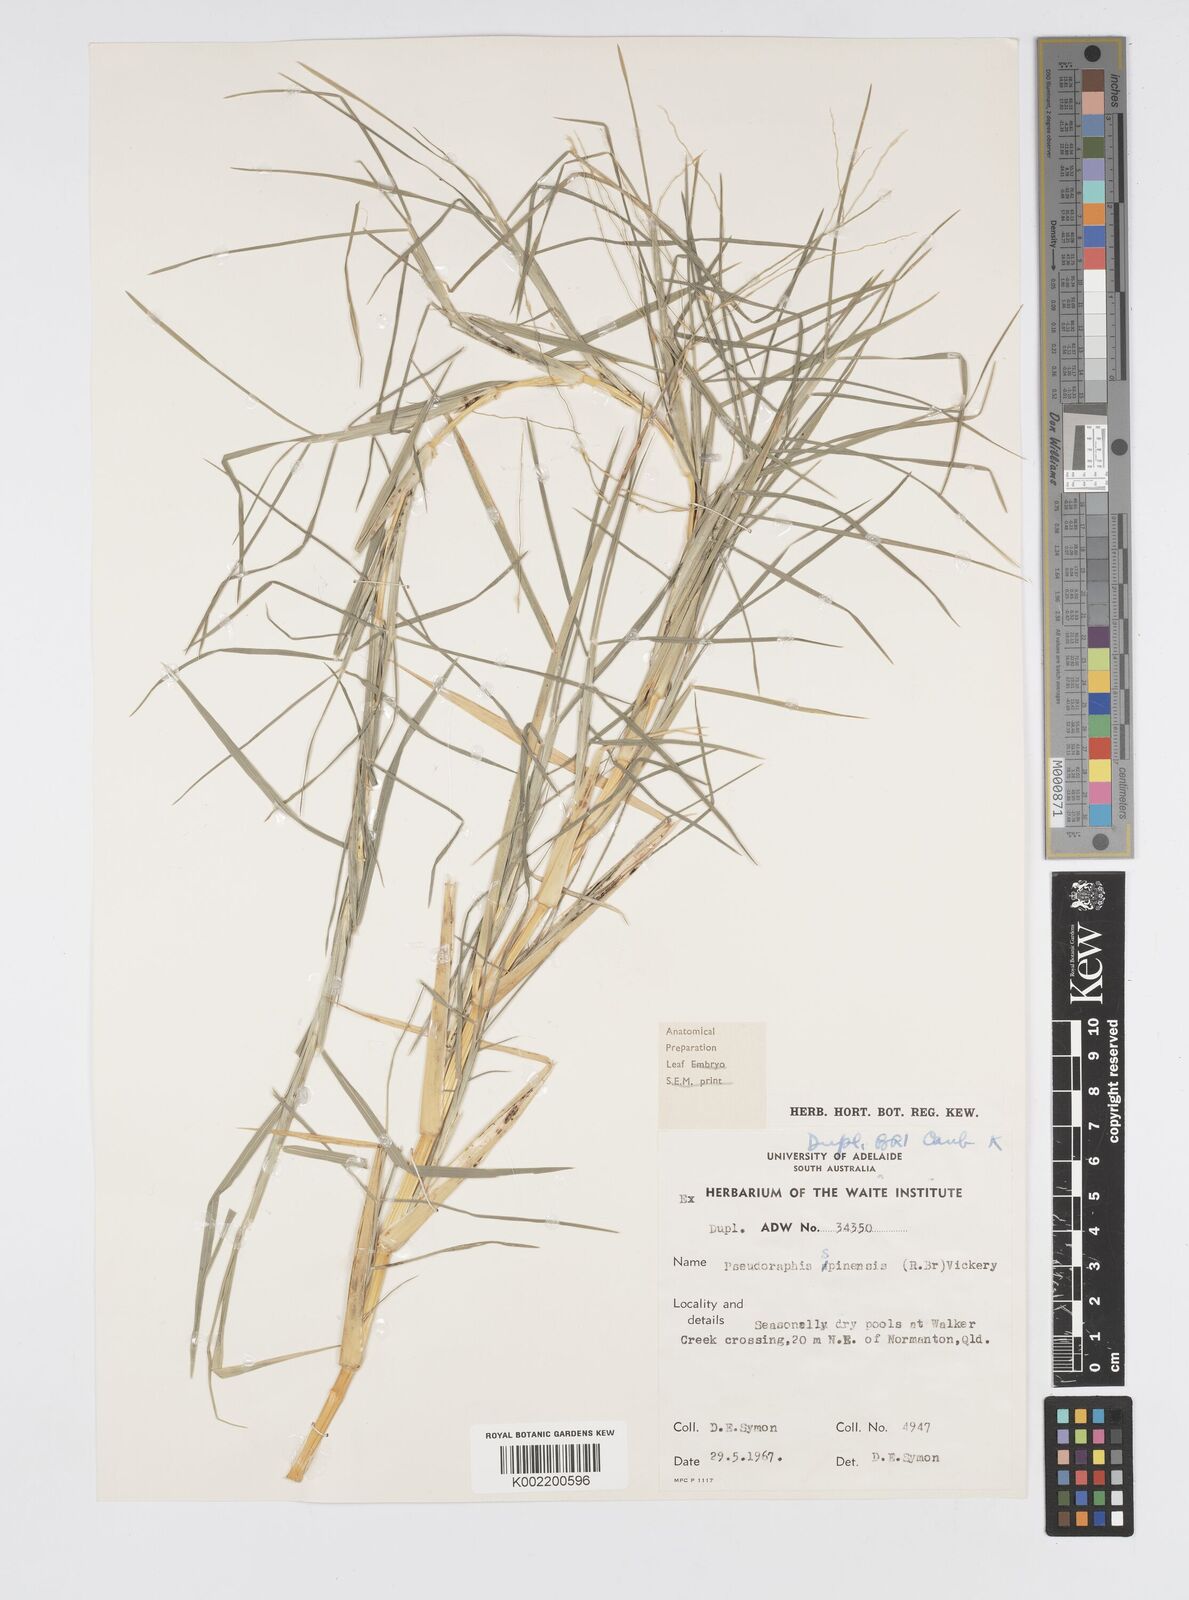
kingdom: Plantae
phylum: Tracheophyta
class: Liliopsida
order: Poales
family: Poaceae
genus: Pseudoraphis
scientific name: Pseudoraphis spinescens
